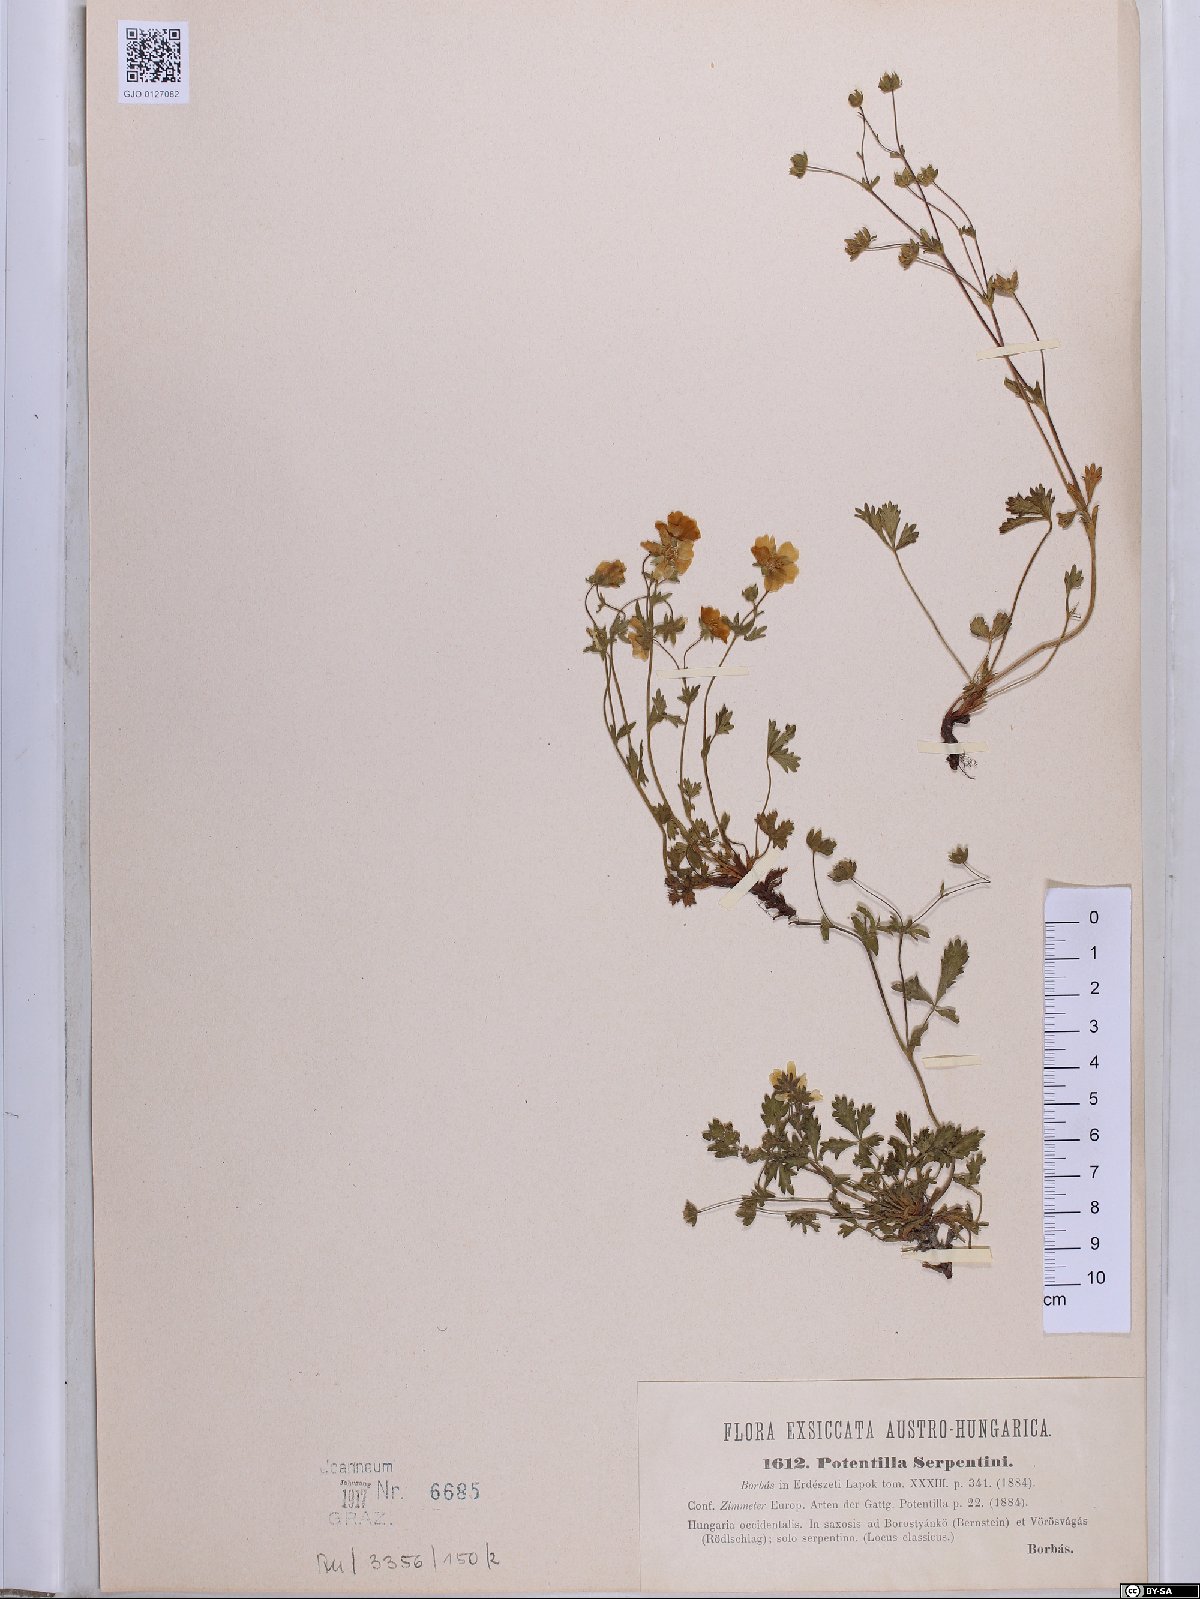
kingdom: Plantae
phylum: Tracheophyta
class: Magnoliopsida
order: Rosales
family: Rosaceae
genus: Potentilla
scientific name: Potentilla crantzii
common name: Alpine cinquefoil
